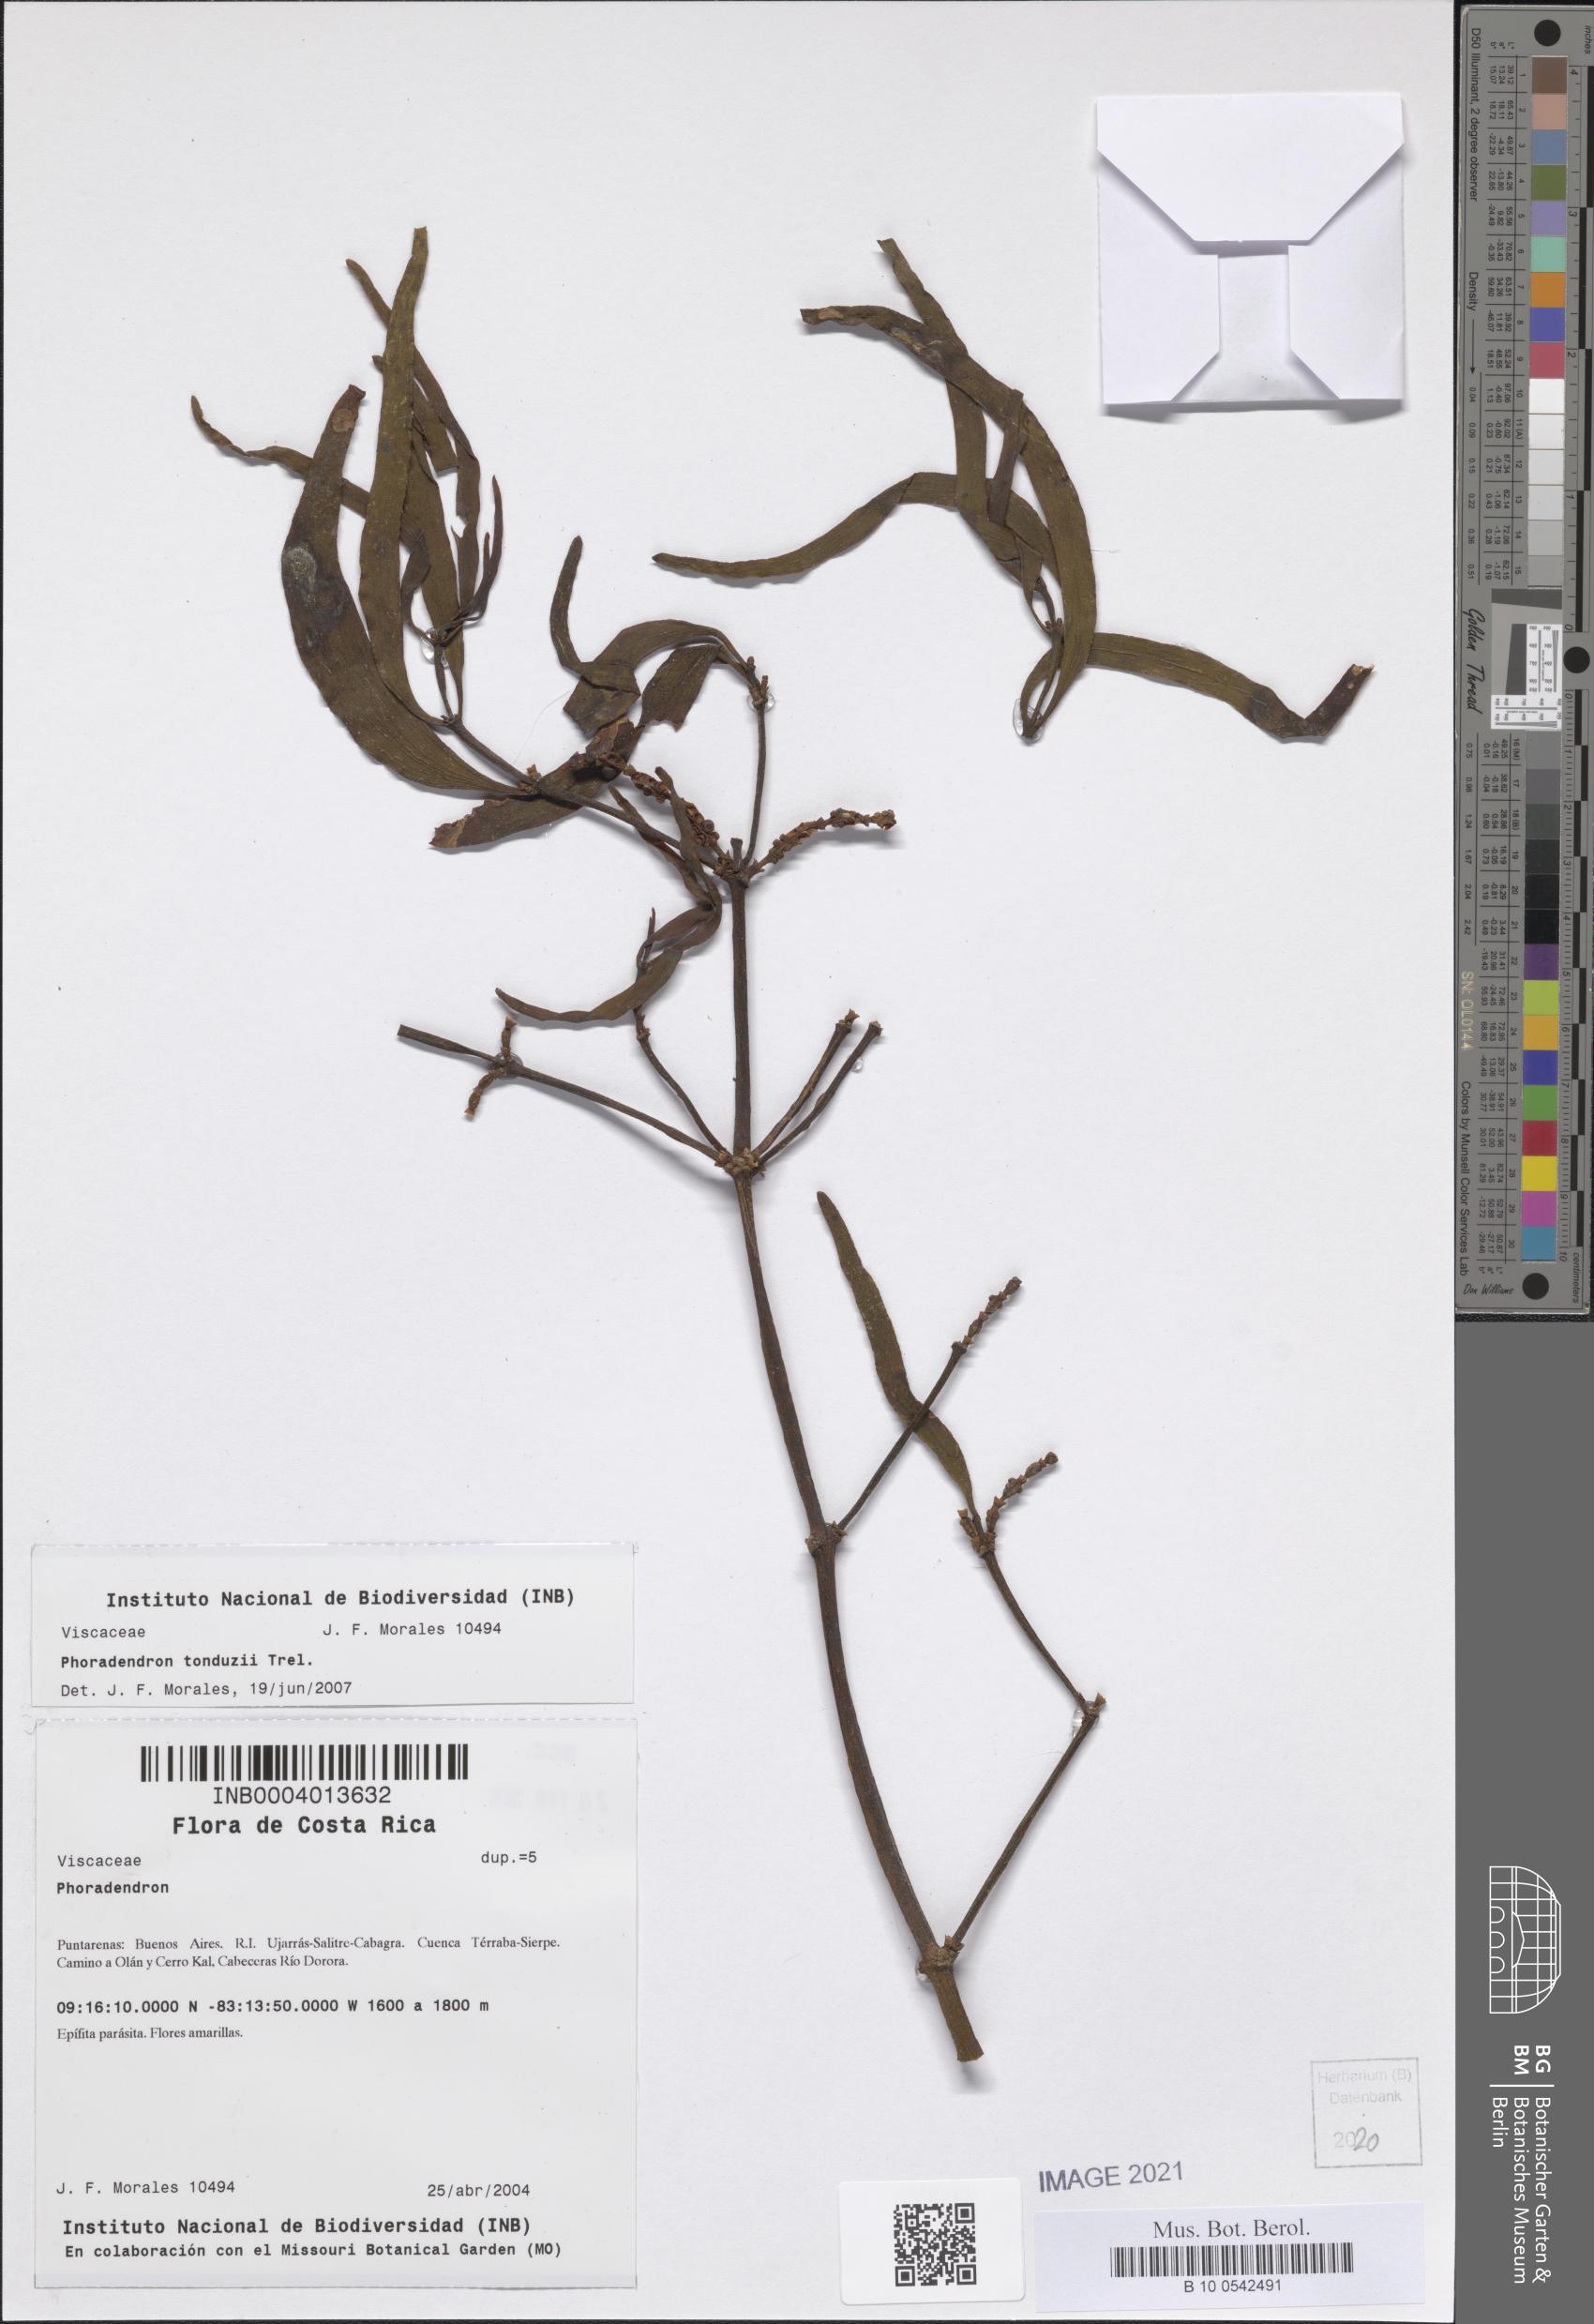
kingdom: Plantae
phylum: Tracheophyta
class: Magnoliopsida
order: Santalales
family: Viscaceae
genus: Phoradendron
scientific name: Phoradendron tonduzii
